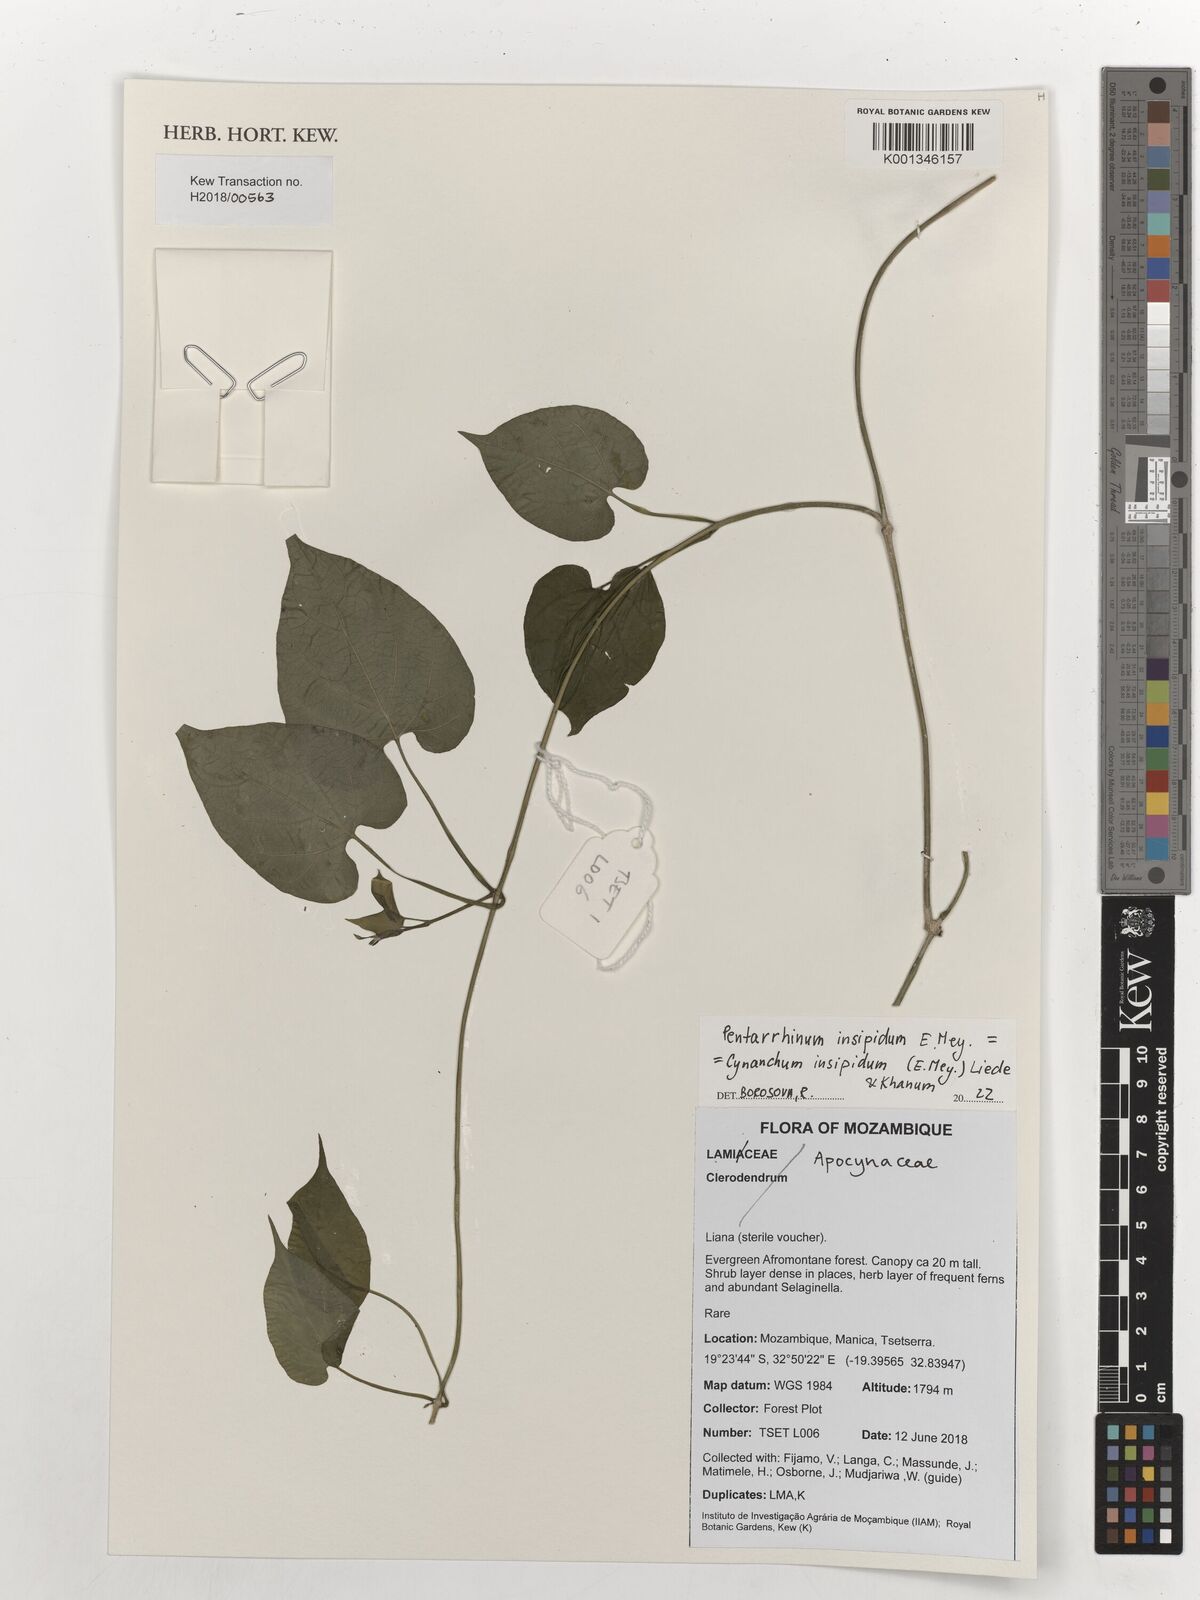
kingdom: Plantae
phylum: Tracheophyta
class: Magnoliopsida
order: Gentianales
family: Apocynaceae
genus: Cynanchum
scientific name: Cynanchum insipidum
